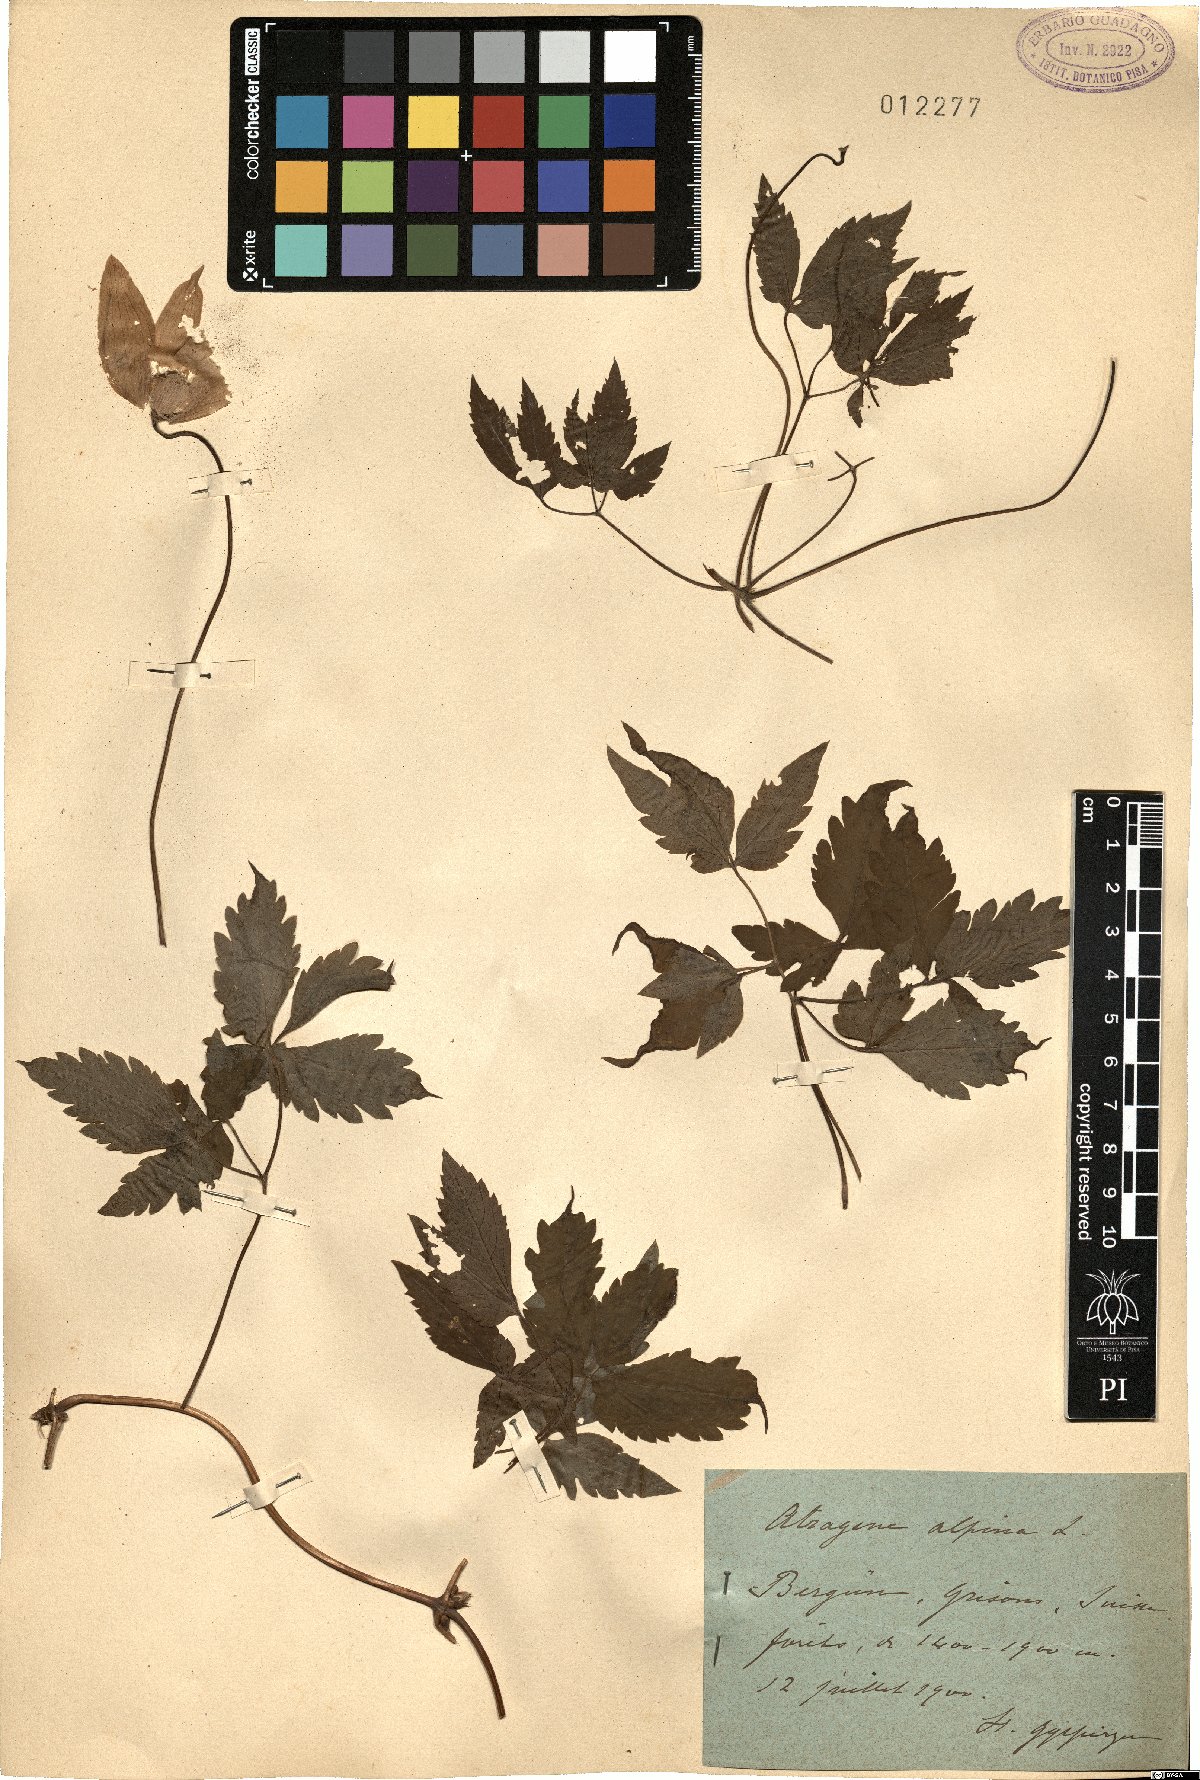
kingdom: Plantae
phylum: Tracheophyta
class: Magnoliopsida
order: Ranunculales
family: Ranunculaceae
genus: Clematis
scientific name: Clematis alpina
